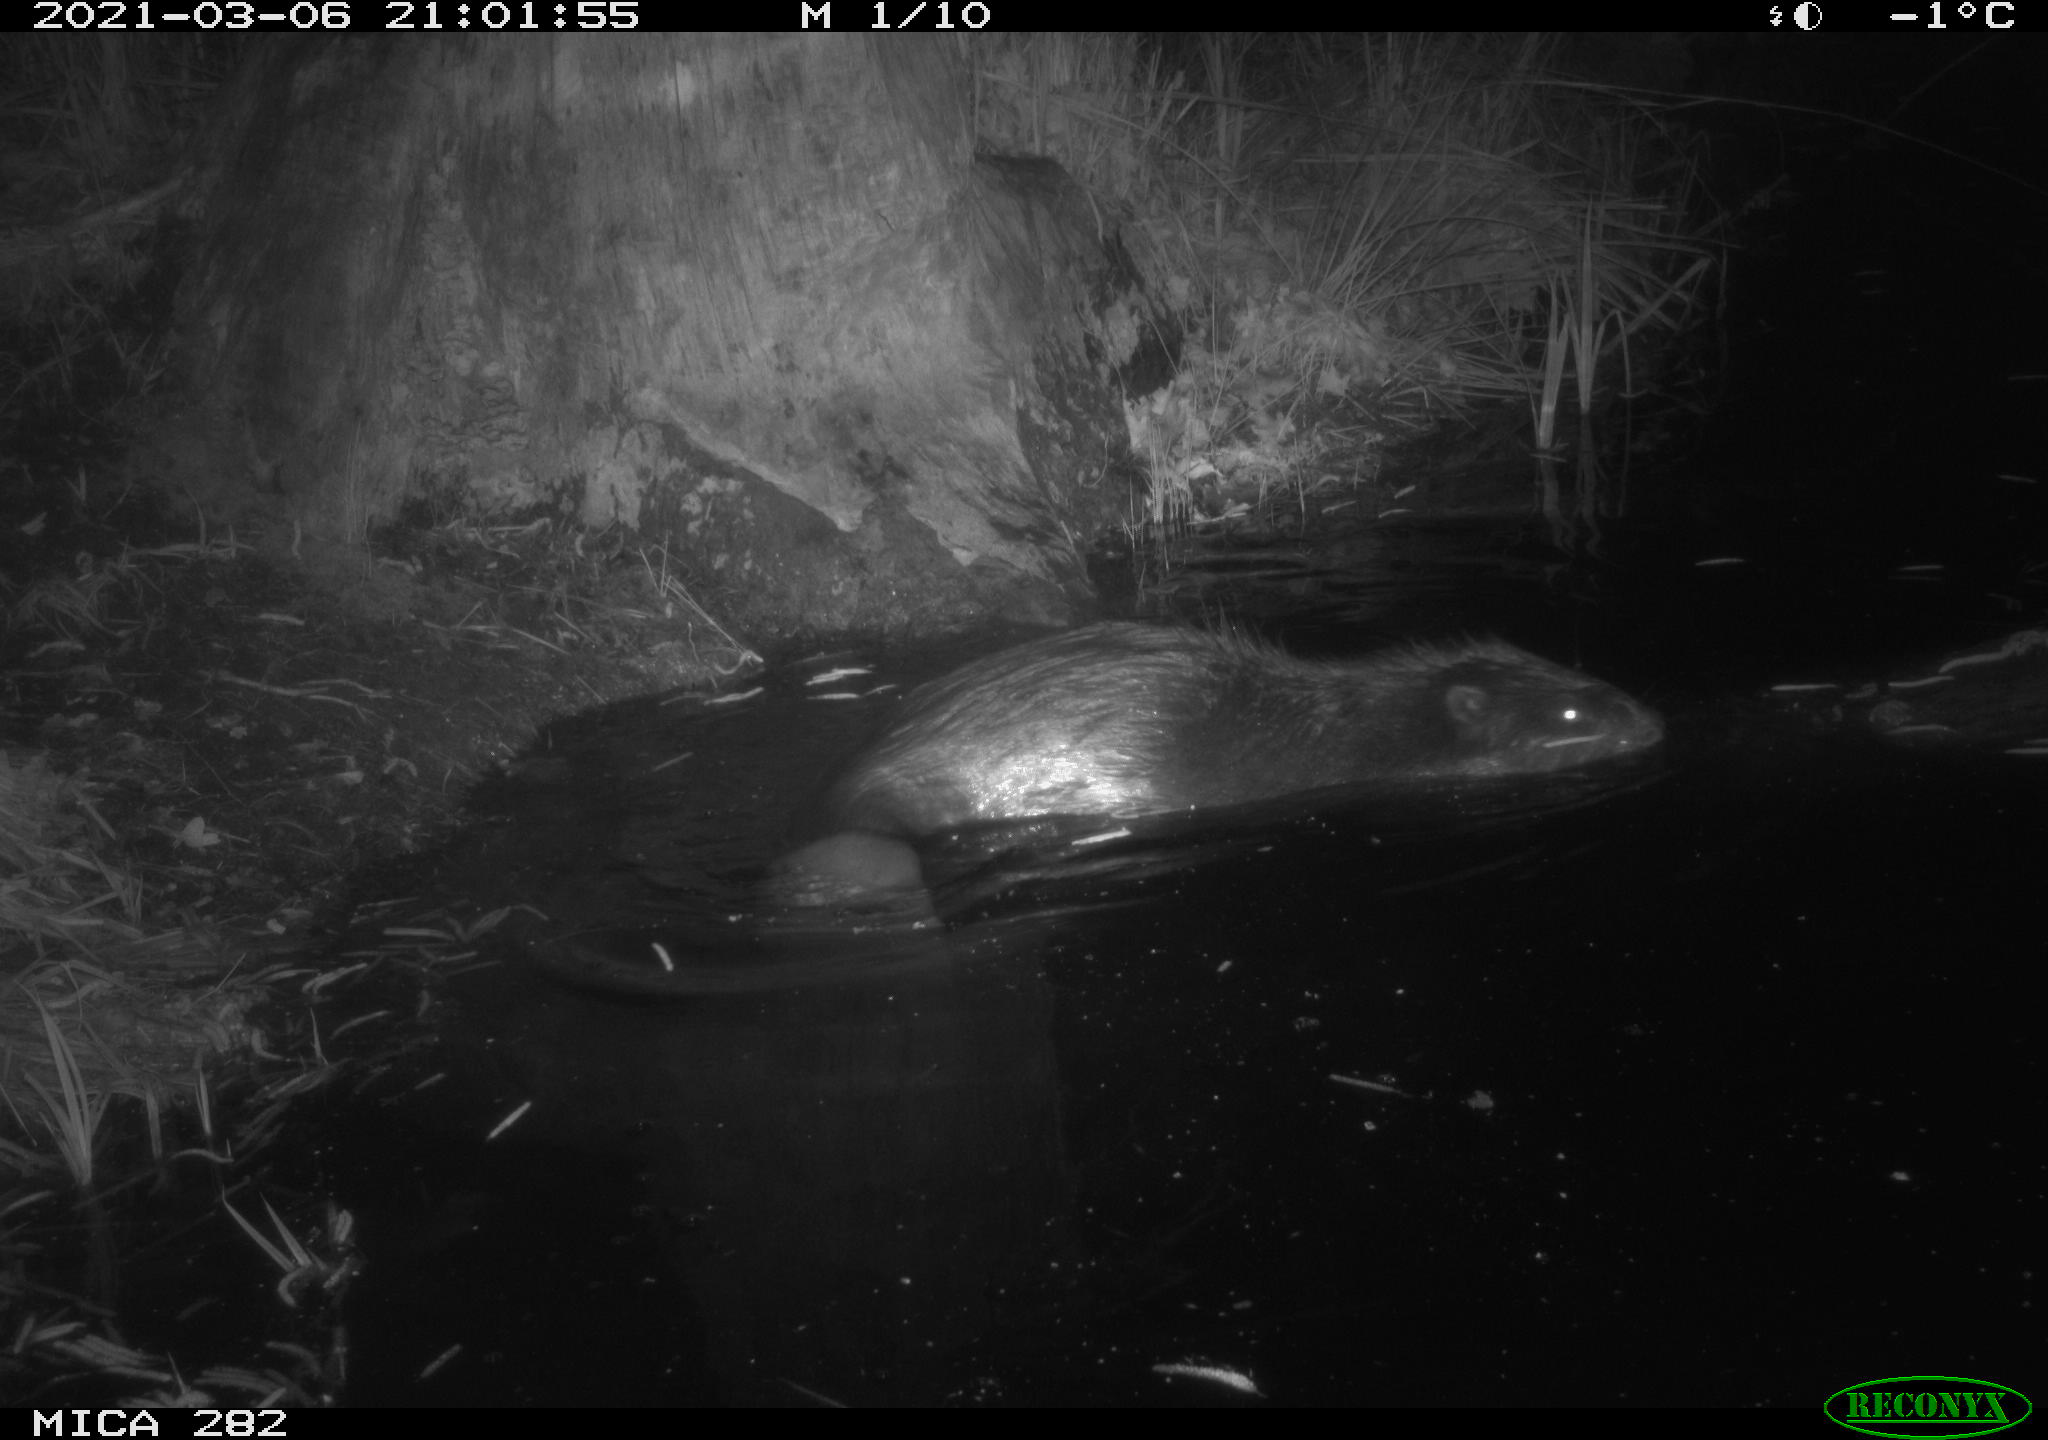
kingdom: Animalia
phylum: Chordata
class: Mammalia
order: Rodentia
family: Castoridae
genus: Castor
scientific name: Castor fiber
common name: Eurasian beaver
